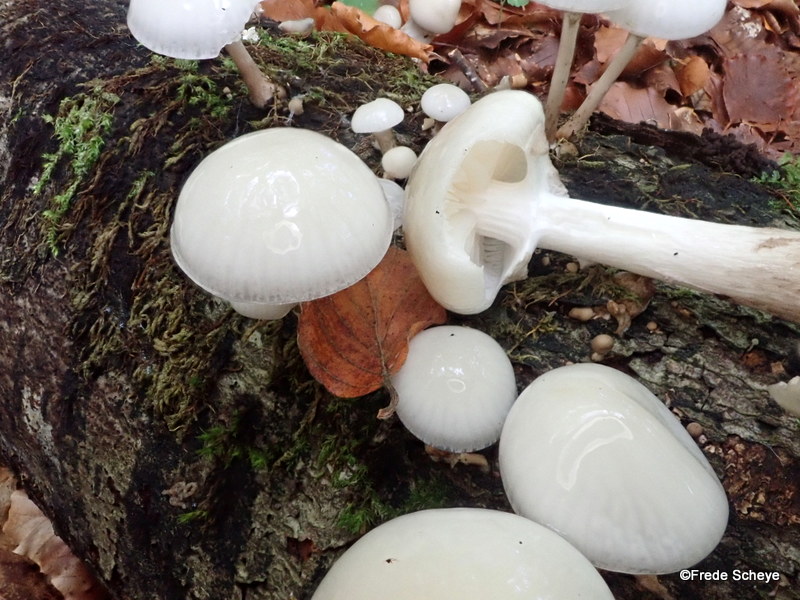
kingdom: Fungi
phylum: Basidiomycota
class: Agaricomycetes
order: Agaricales
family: Physalacriaceae
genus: Mucidula
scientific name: Mucidula mucida
